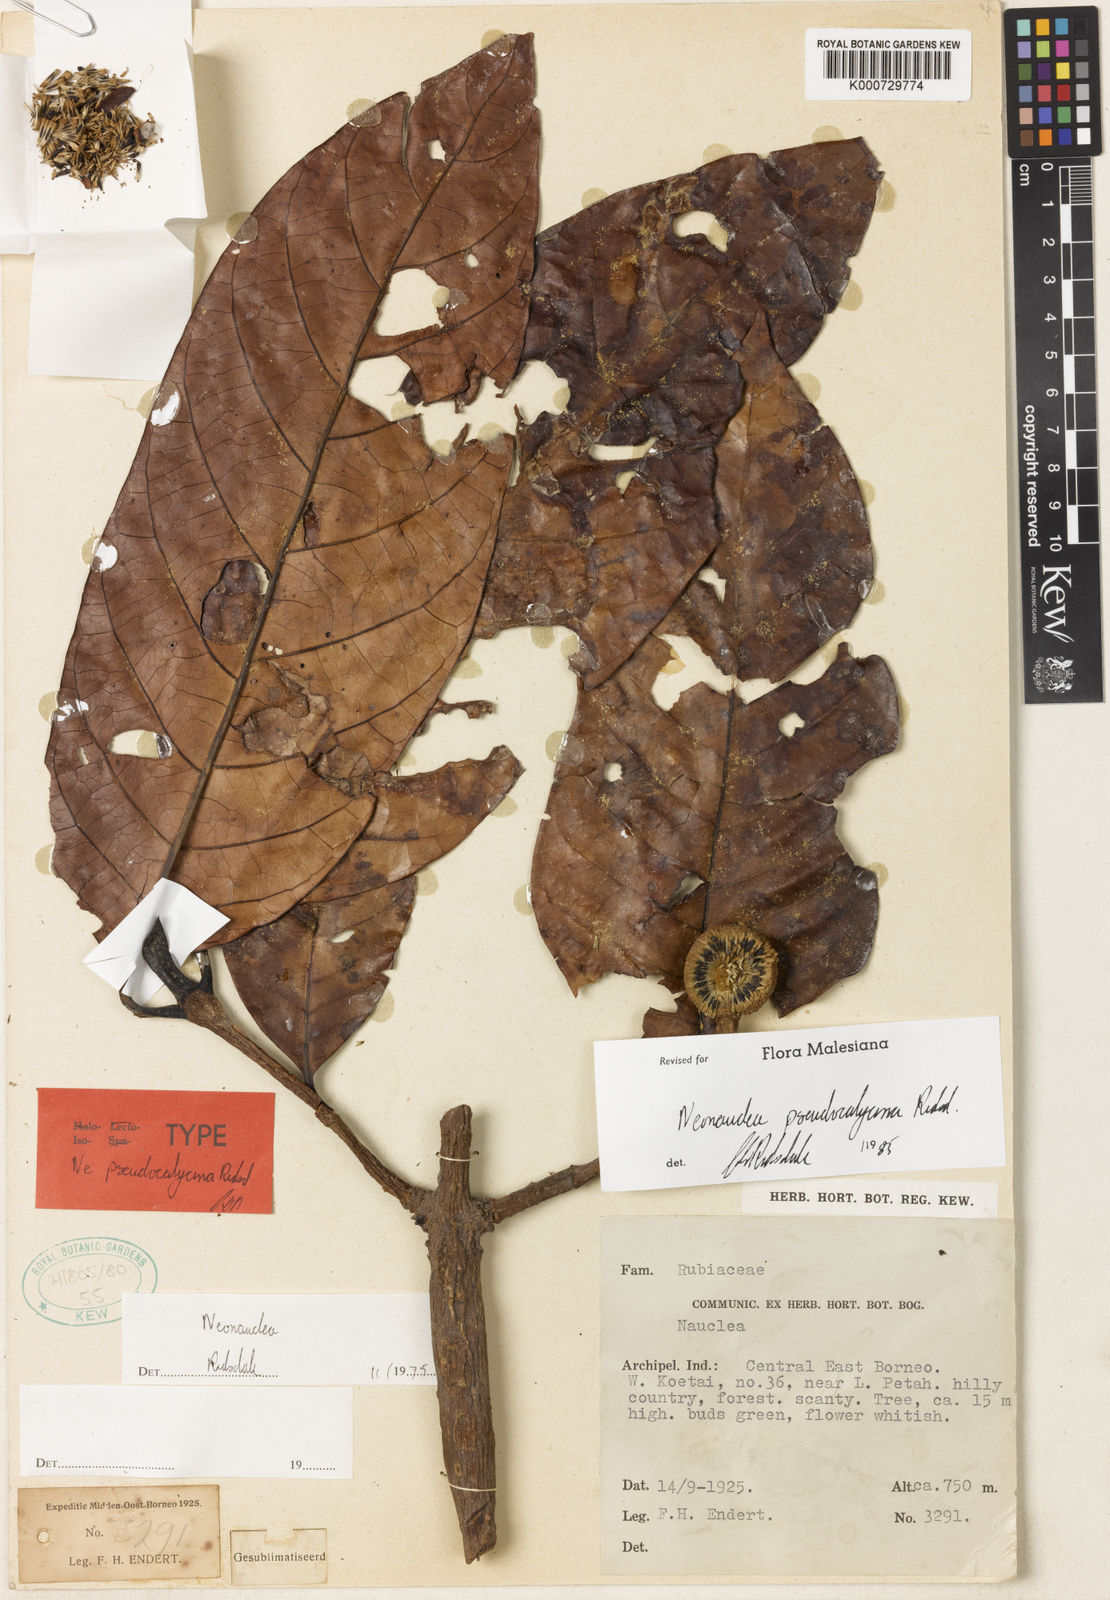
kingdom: Plantae
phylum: Tracheophyta
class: Magnoliopsida
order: Gentianales
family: Rubiaceae
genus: Neonauclea
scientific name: Neonauclea pseudocalycina
